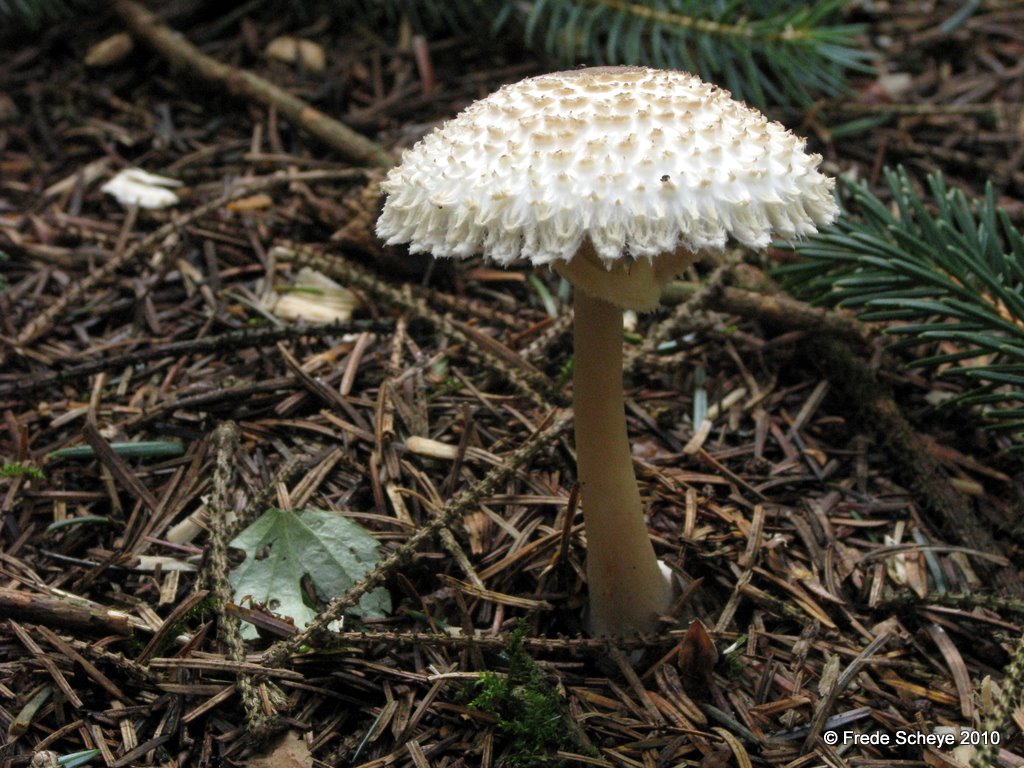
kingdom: Fungi
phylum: Basidiomycota
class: Agaricomycetes
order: Agaricales
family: Agaricaceae
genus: Leucoagaricus
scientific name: Leucoagaricus nympharum
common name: gran-silkehat
